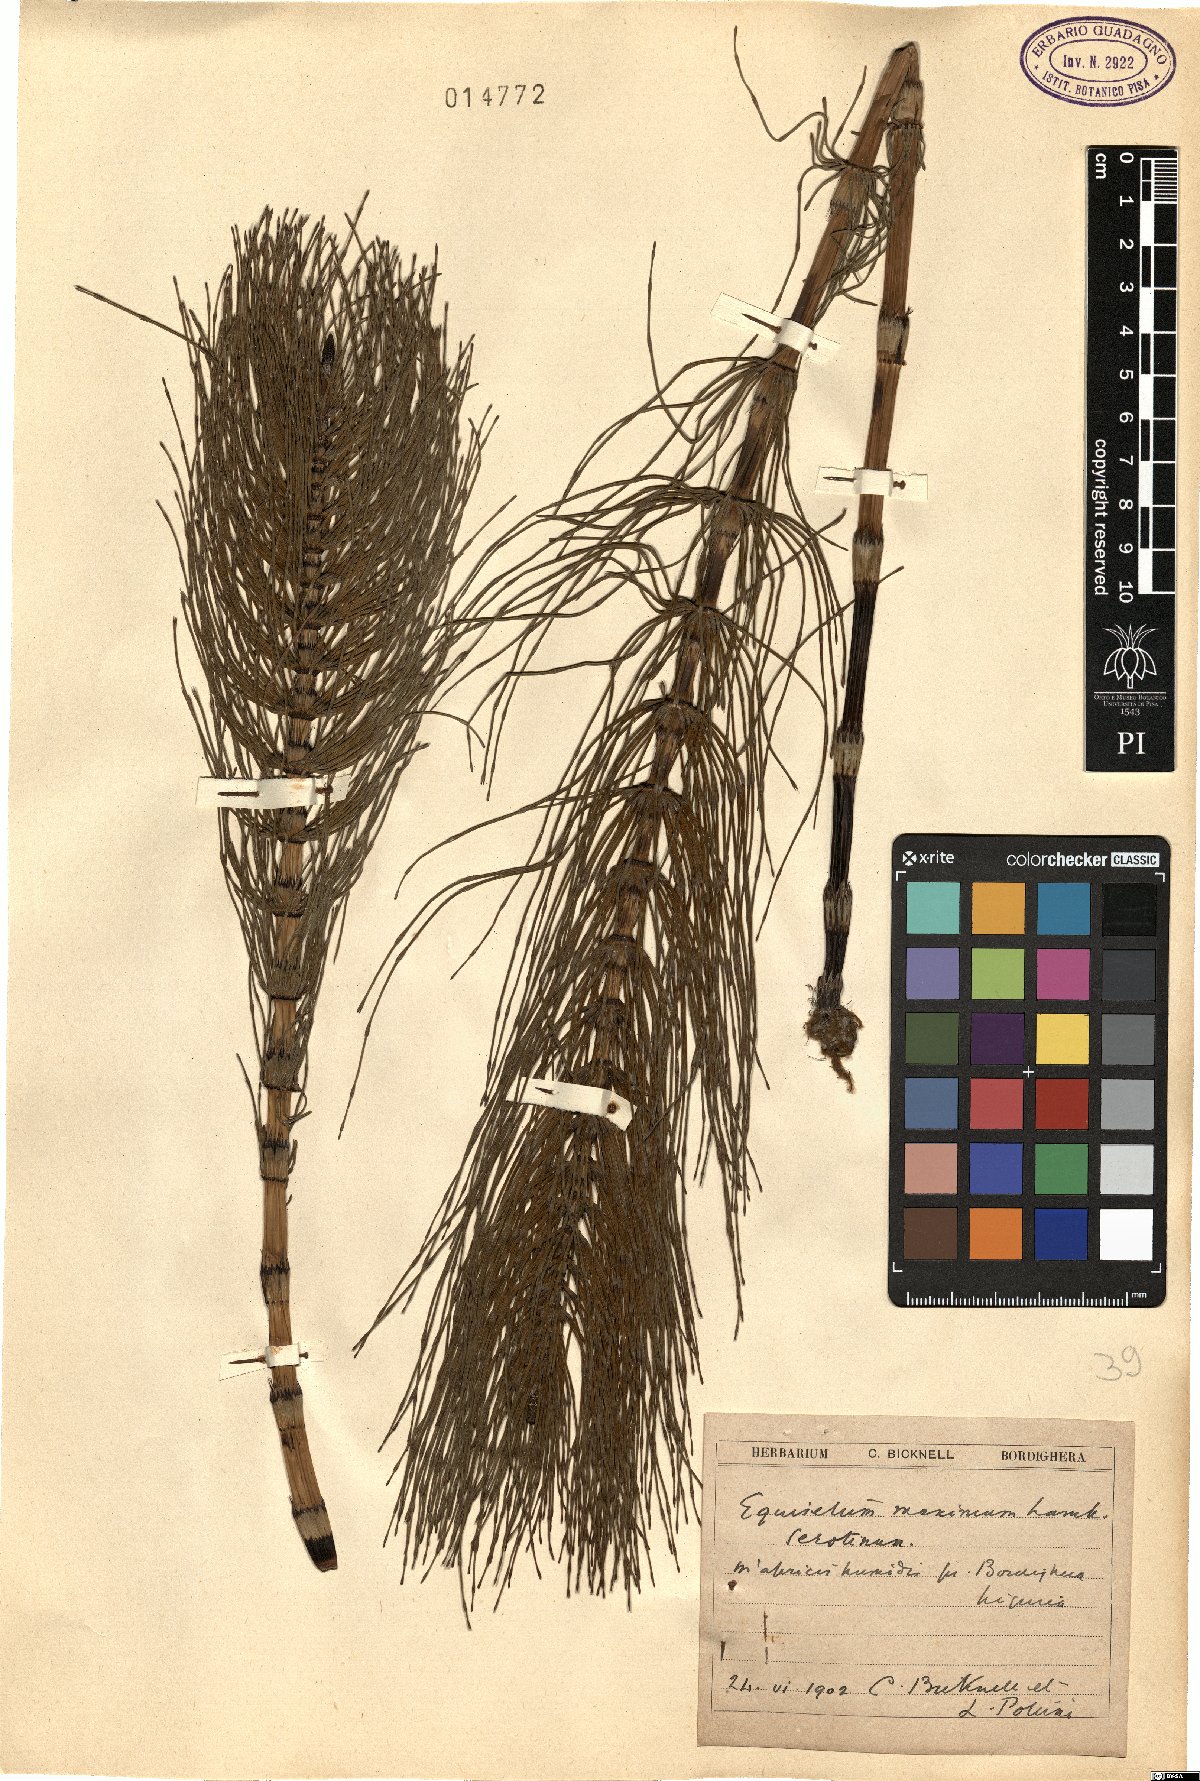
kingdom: Plantae
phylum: Tracheophyta
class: Polypodiopsida
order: Equisetales
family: Equisetaceae
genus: Equisetum
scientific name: Equisetum telmateia
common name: Great horsetail
